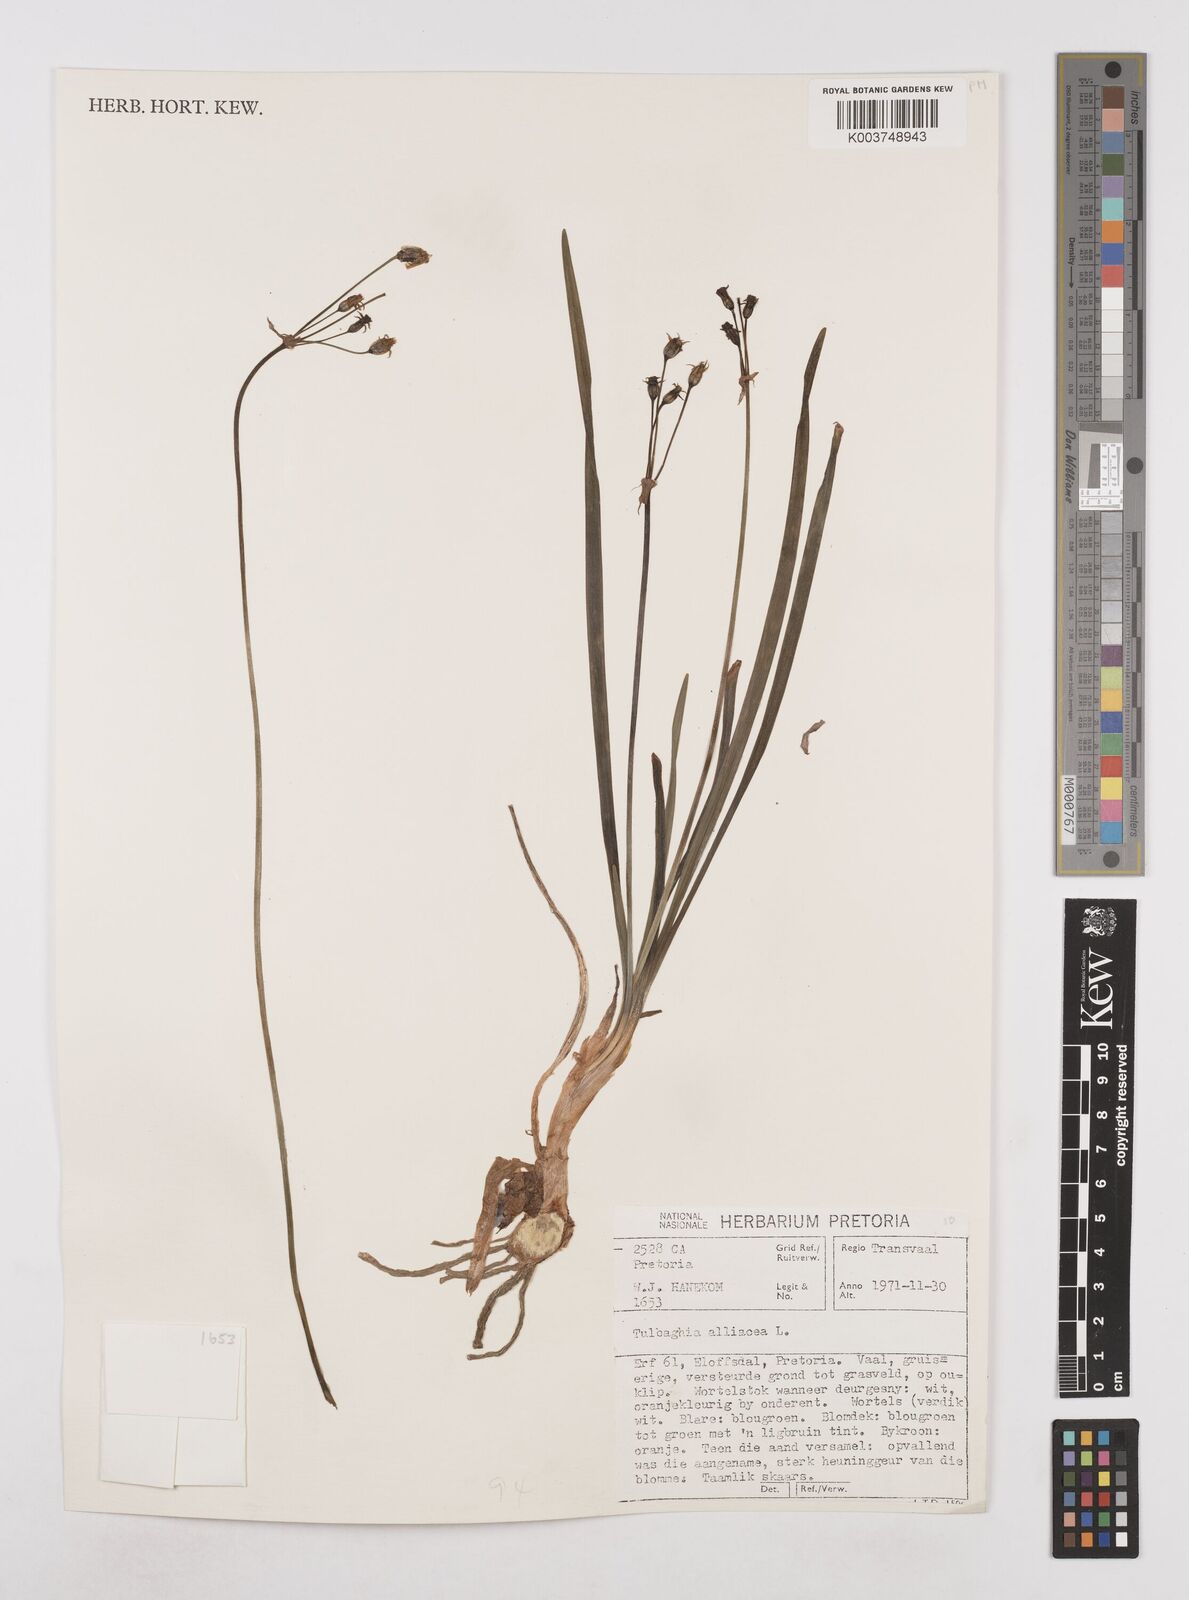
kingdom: Plantae
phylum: Tracheophyta
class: Liliopsida
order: Asparagales
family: Amaryllidaceae
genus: Tulbaghia
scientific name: Tulbaghia alliacea
